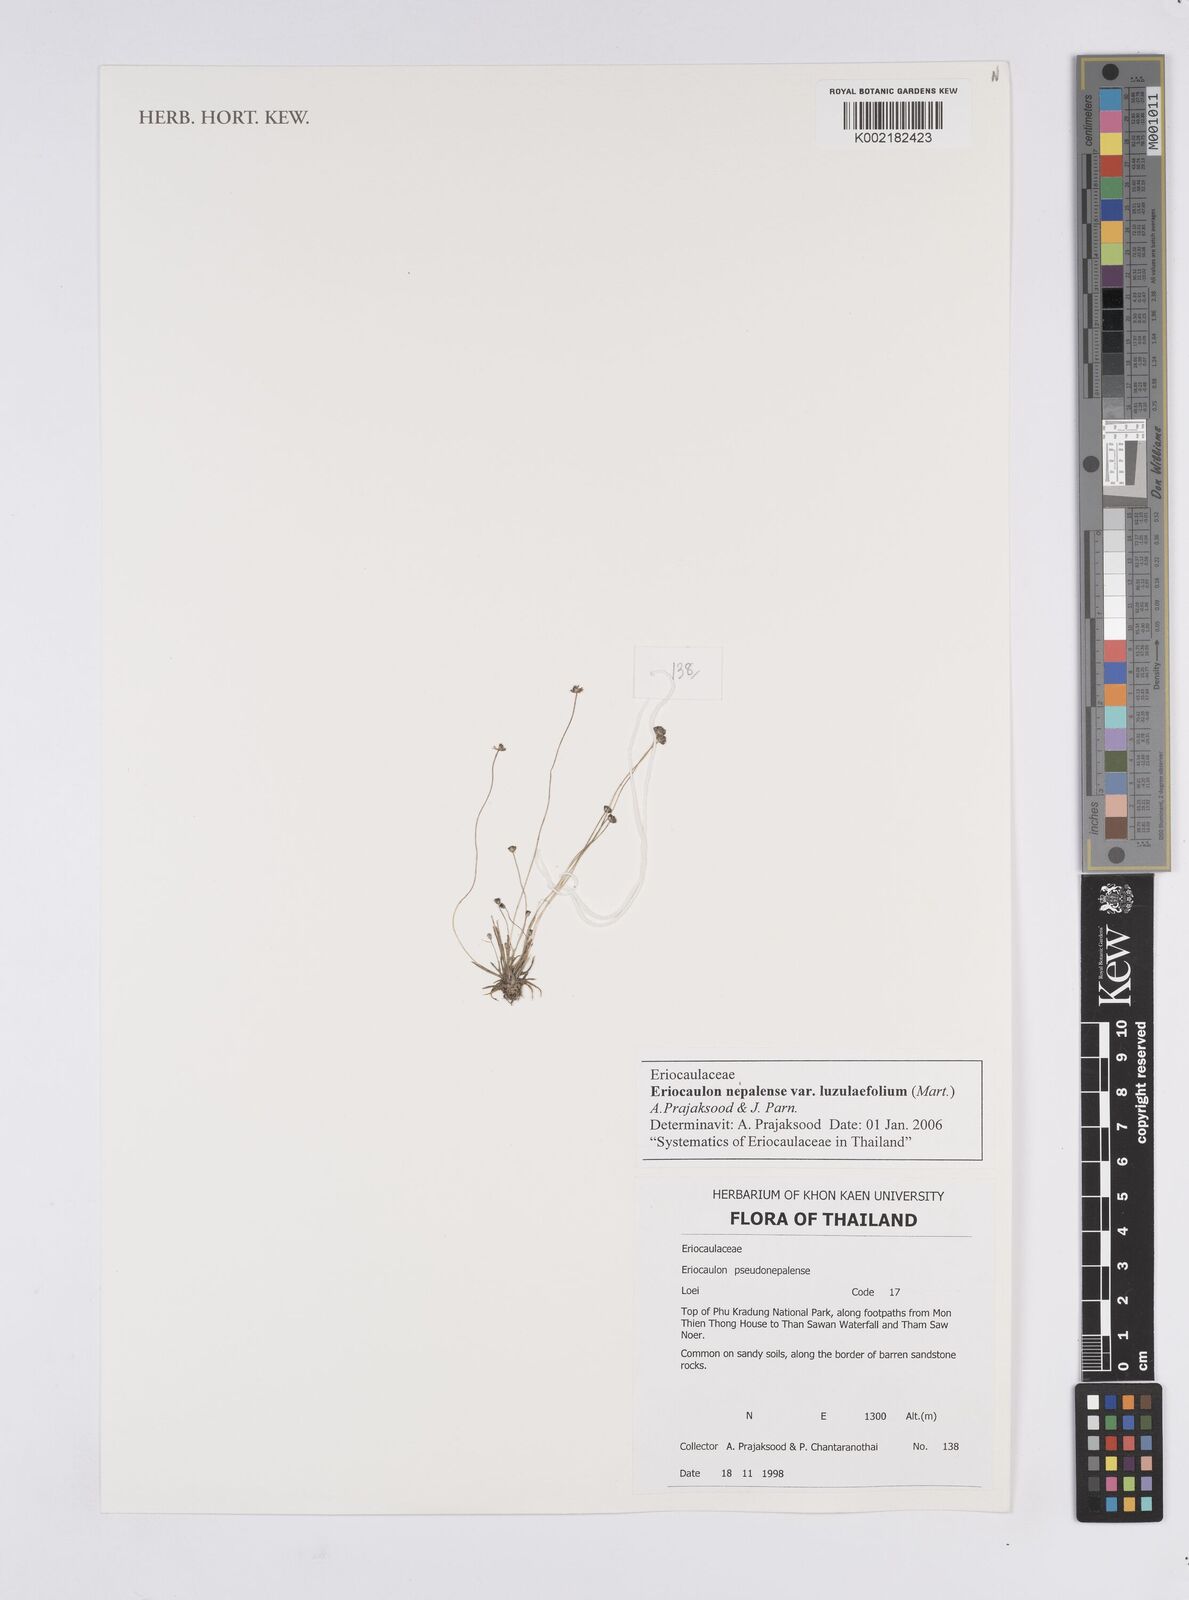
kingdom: Plantae
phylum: Tracheophyta
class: Liliopsida
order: Poales
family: Eriocaulaceae
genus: Eriocaulon
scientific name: Eriocaulon nepalense
